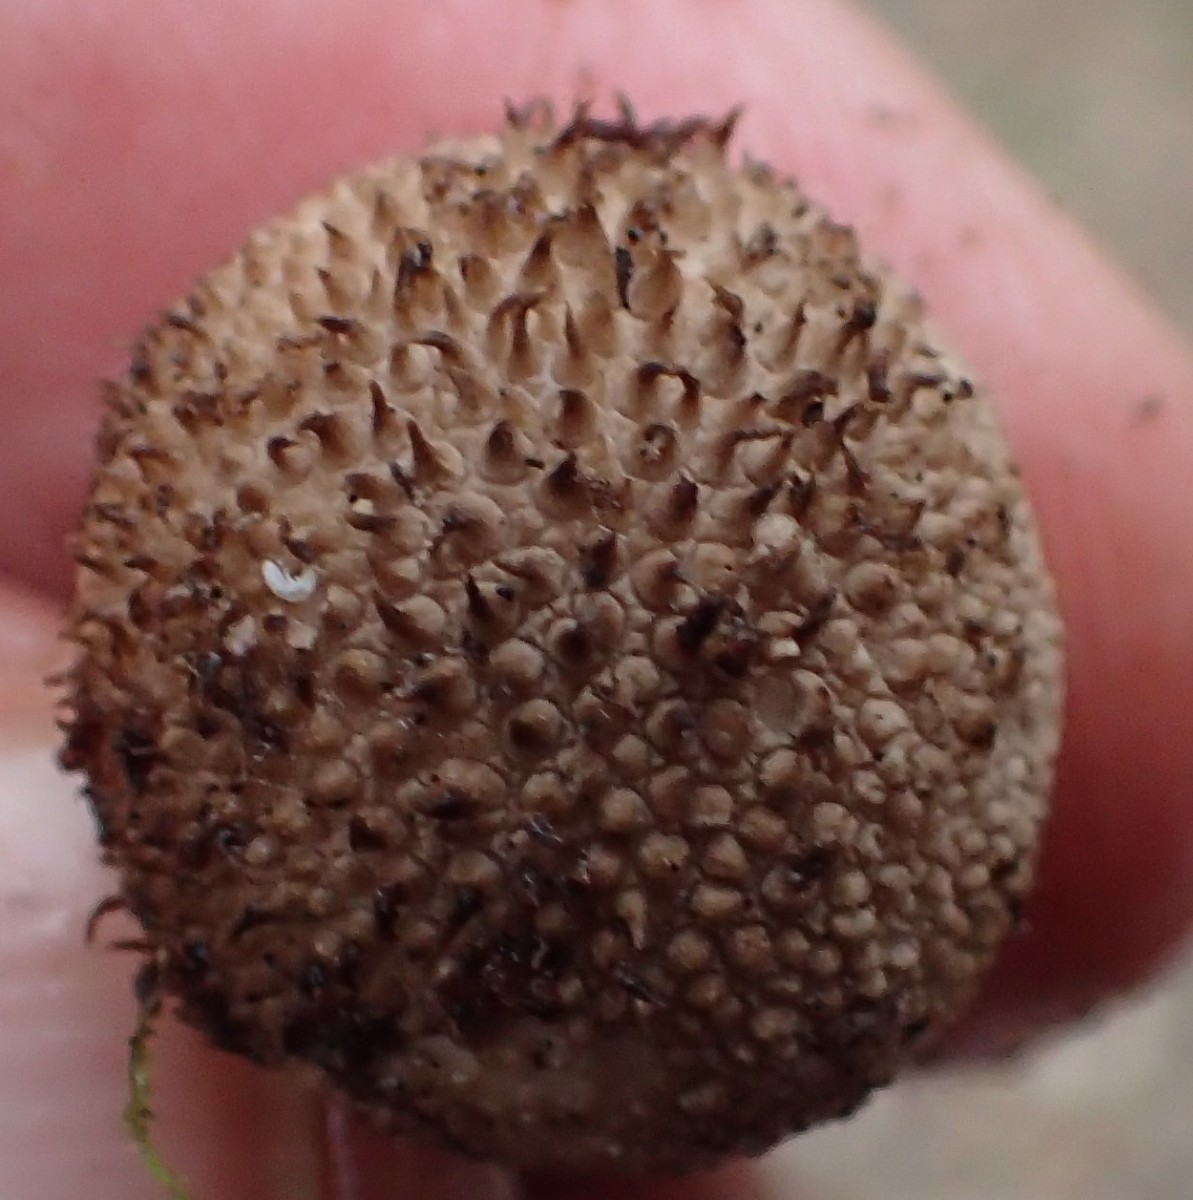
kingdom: Fungi
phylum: Basidiomycota
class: Agaricomycetes
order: Agaricales
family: Lycoperdaceae
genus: Lycoperdon
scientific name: Lycoperdon nigrescens
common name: sortagtig støvbold
